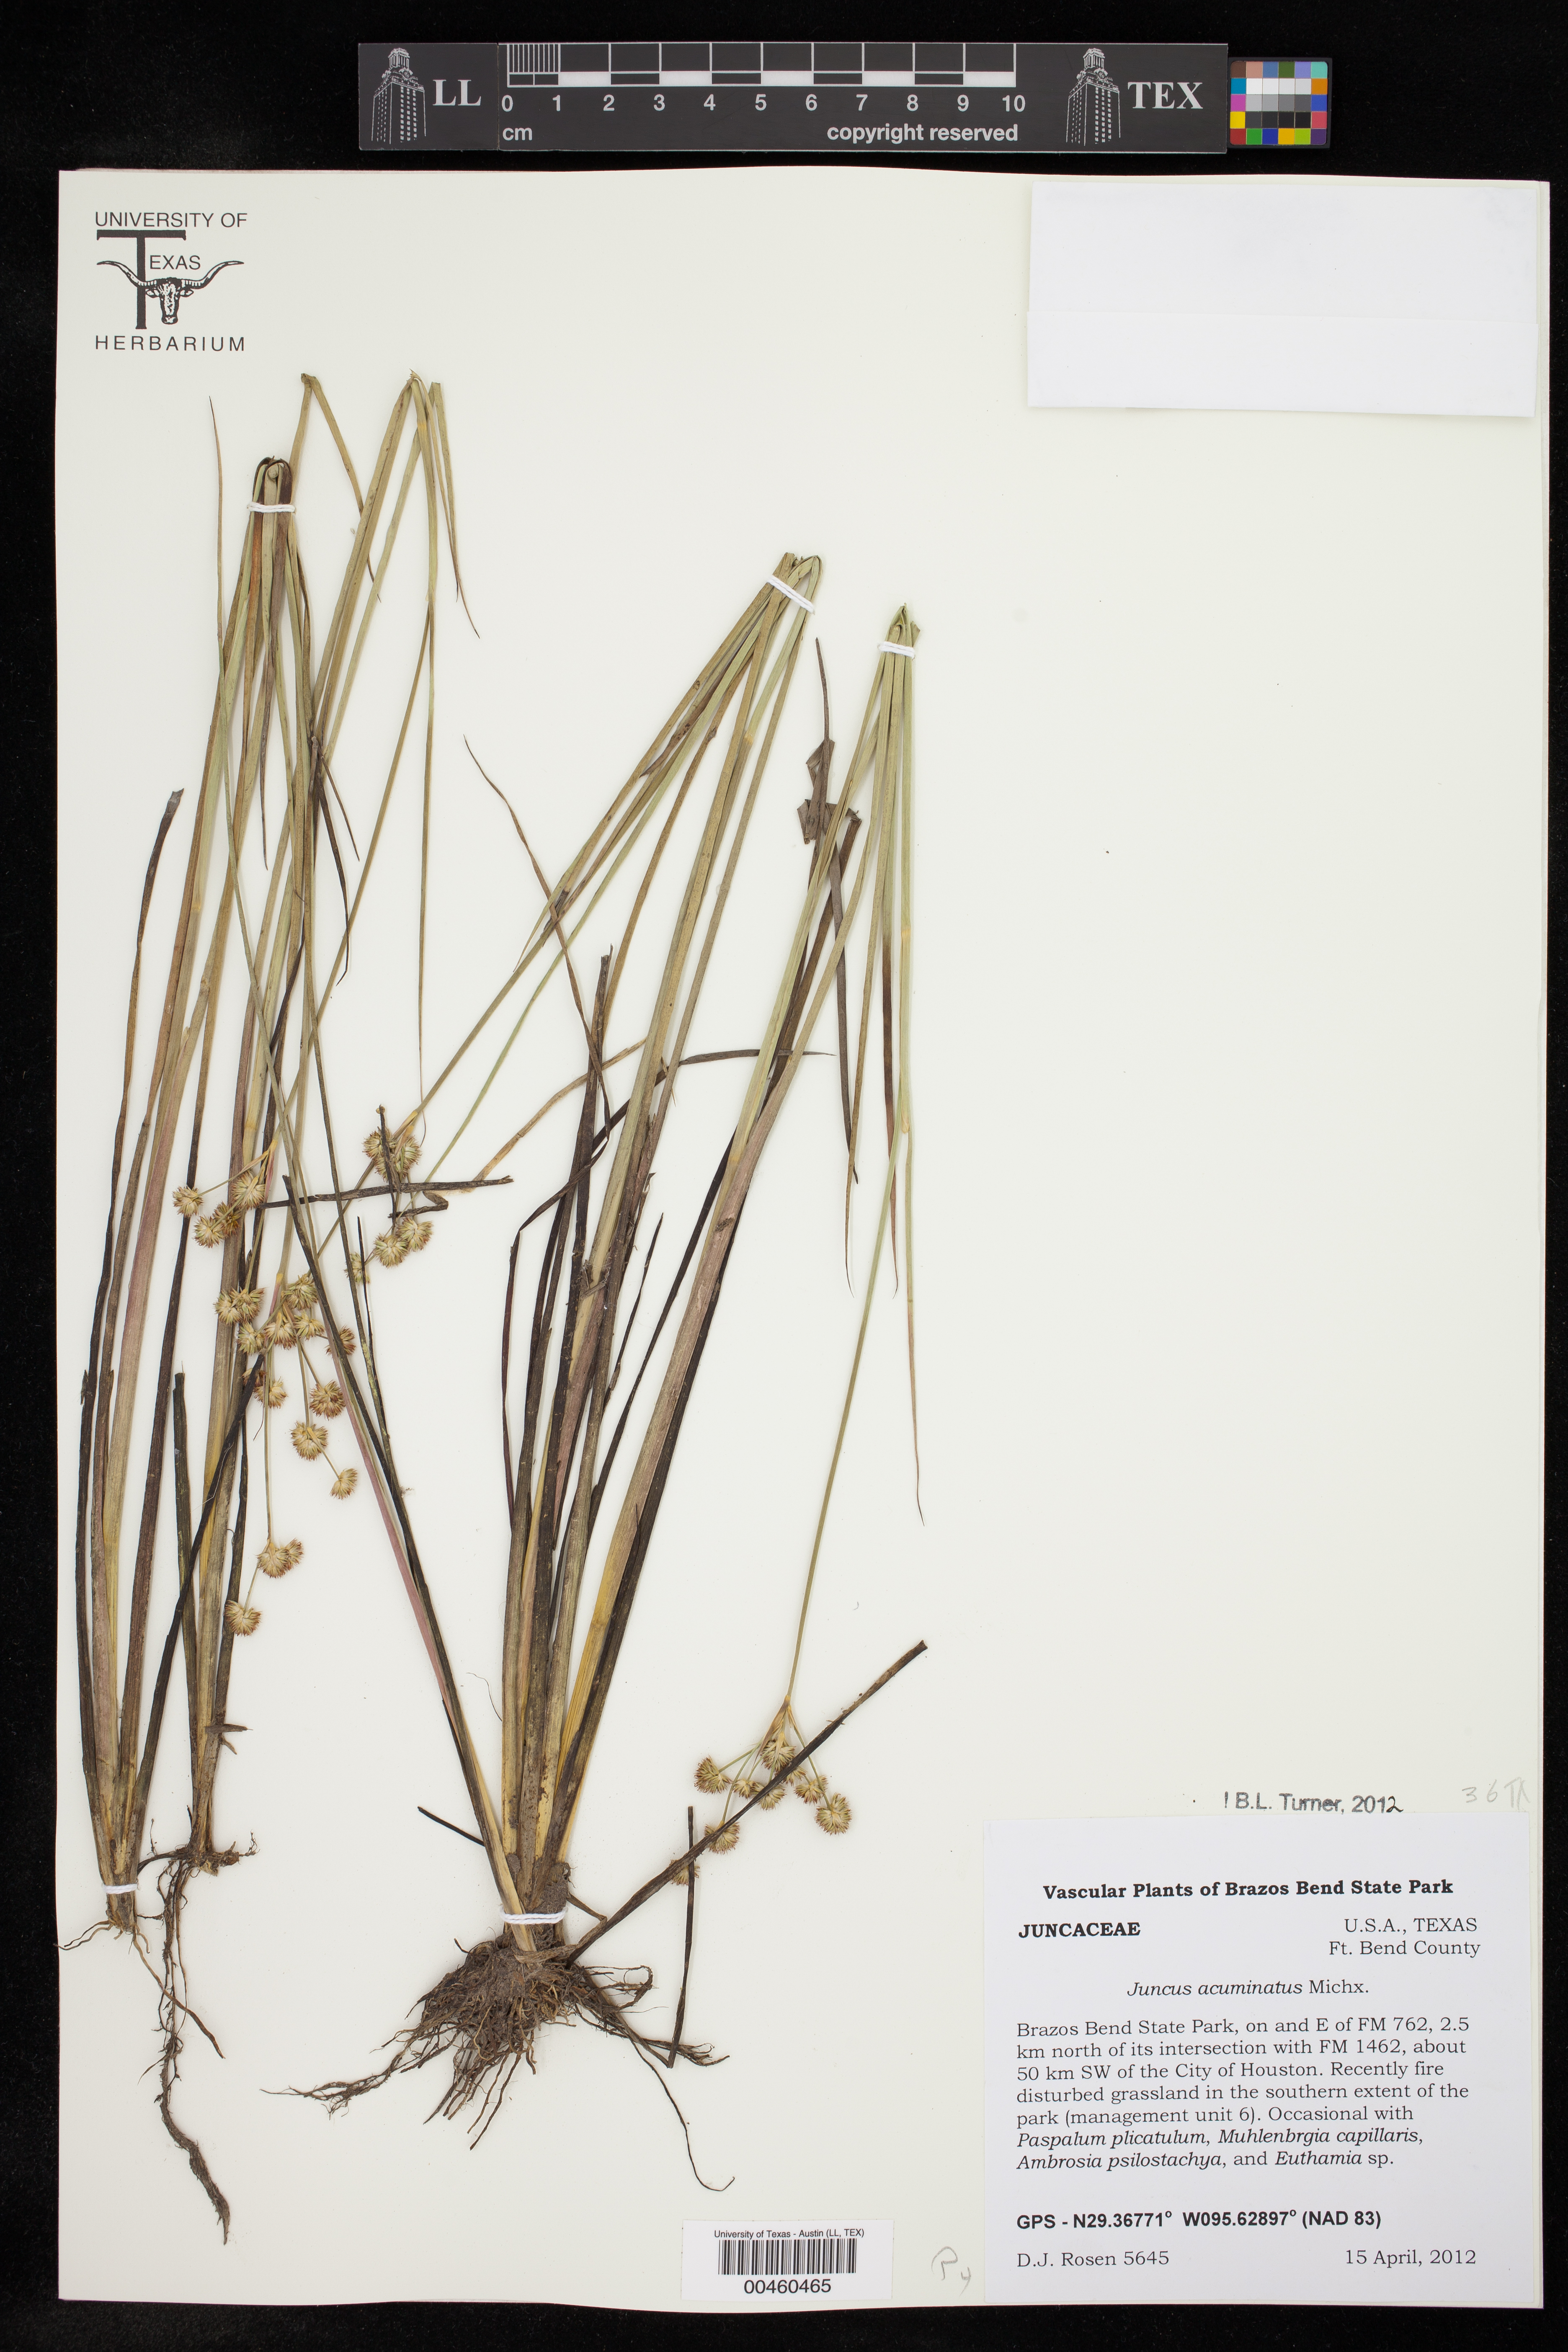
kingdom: Plantae
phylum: Tracheophyta
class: Liliopsida
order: Poales
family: Juncaceae
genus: Juncus
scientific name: Juncus acuminatus
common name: Knotty-leaved rush
